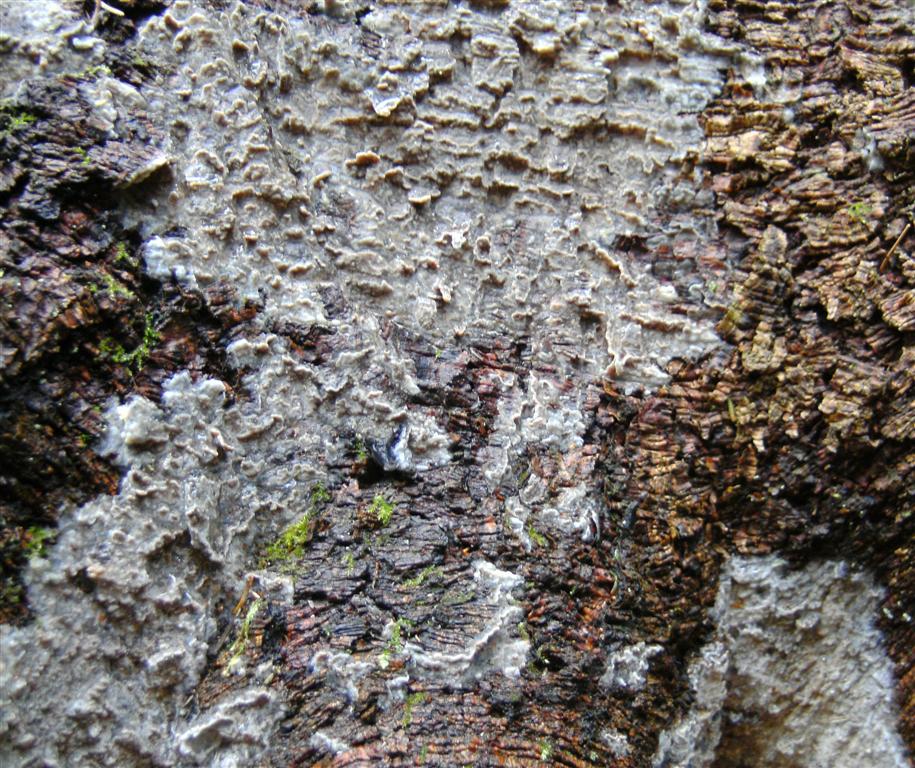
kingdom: Fungi
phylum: Basidiomycota
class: Agaricomycetes
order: Polyporales
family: Phanerochaetaceae
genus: Phlebiopsis
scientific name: Phlebiopsis gigantea
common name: kæmpebarksvamp
